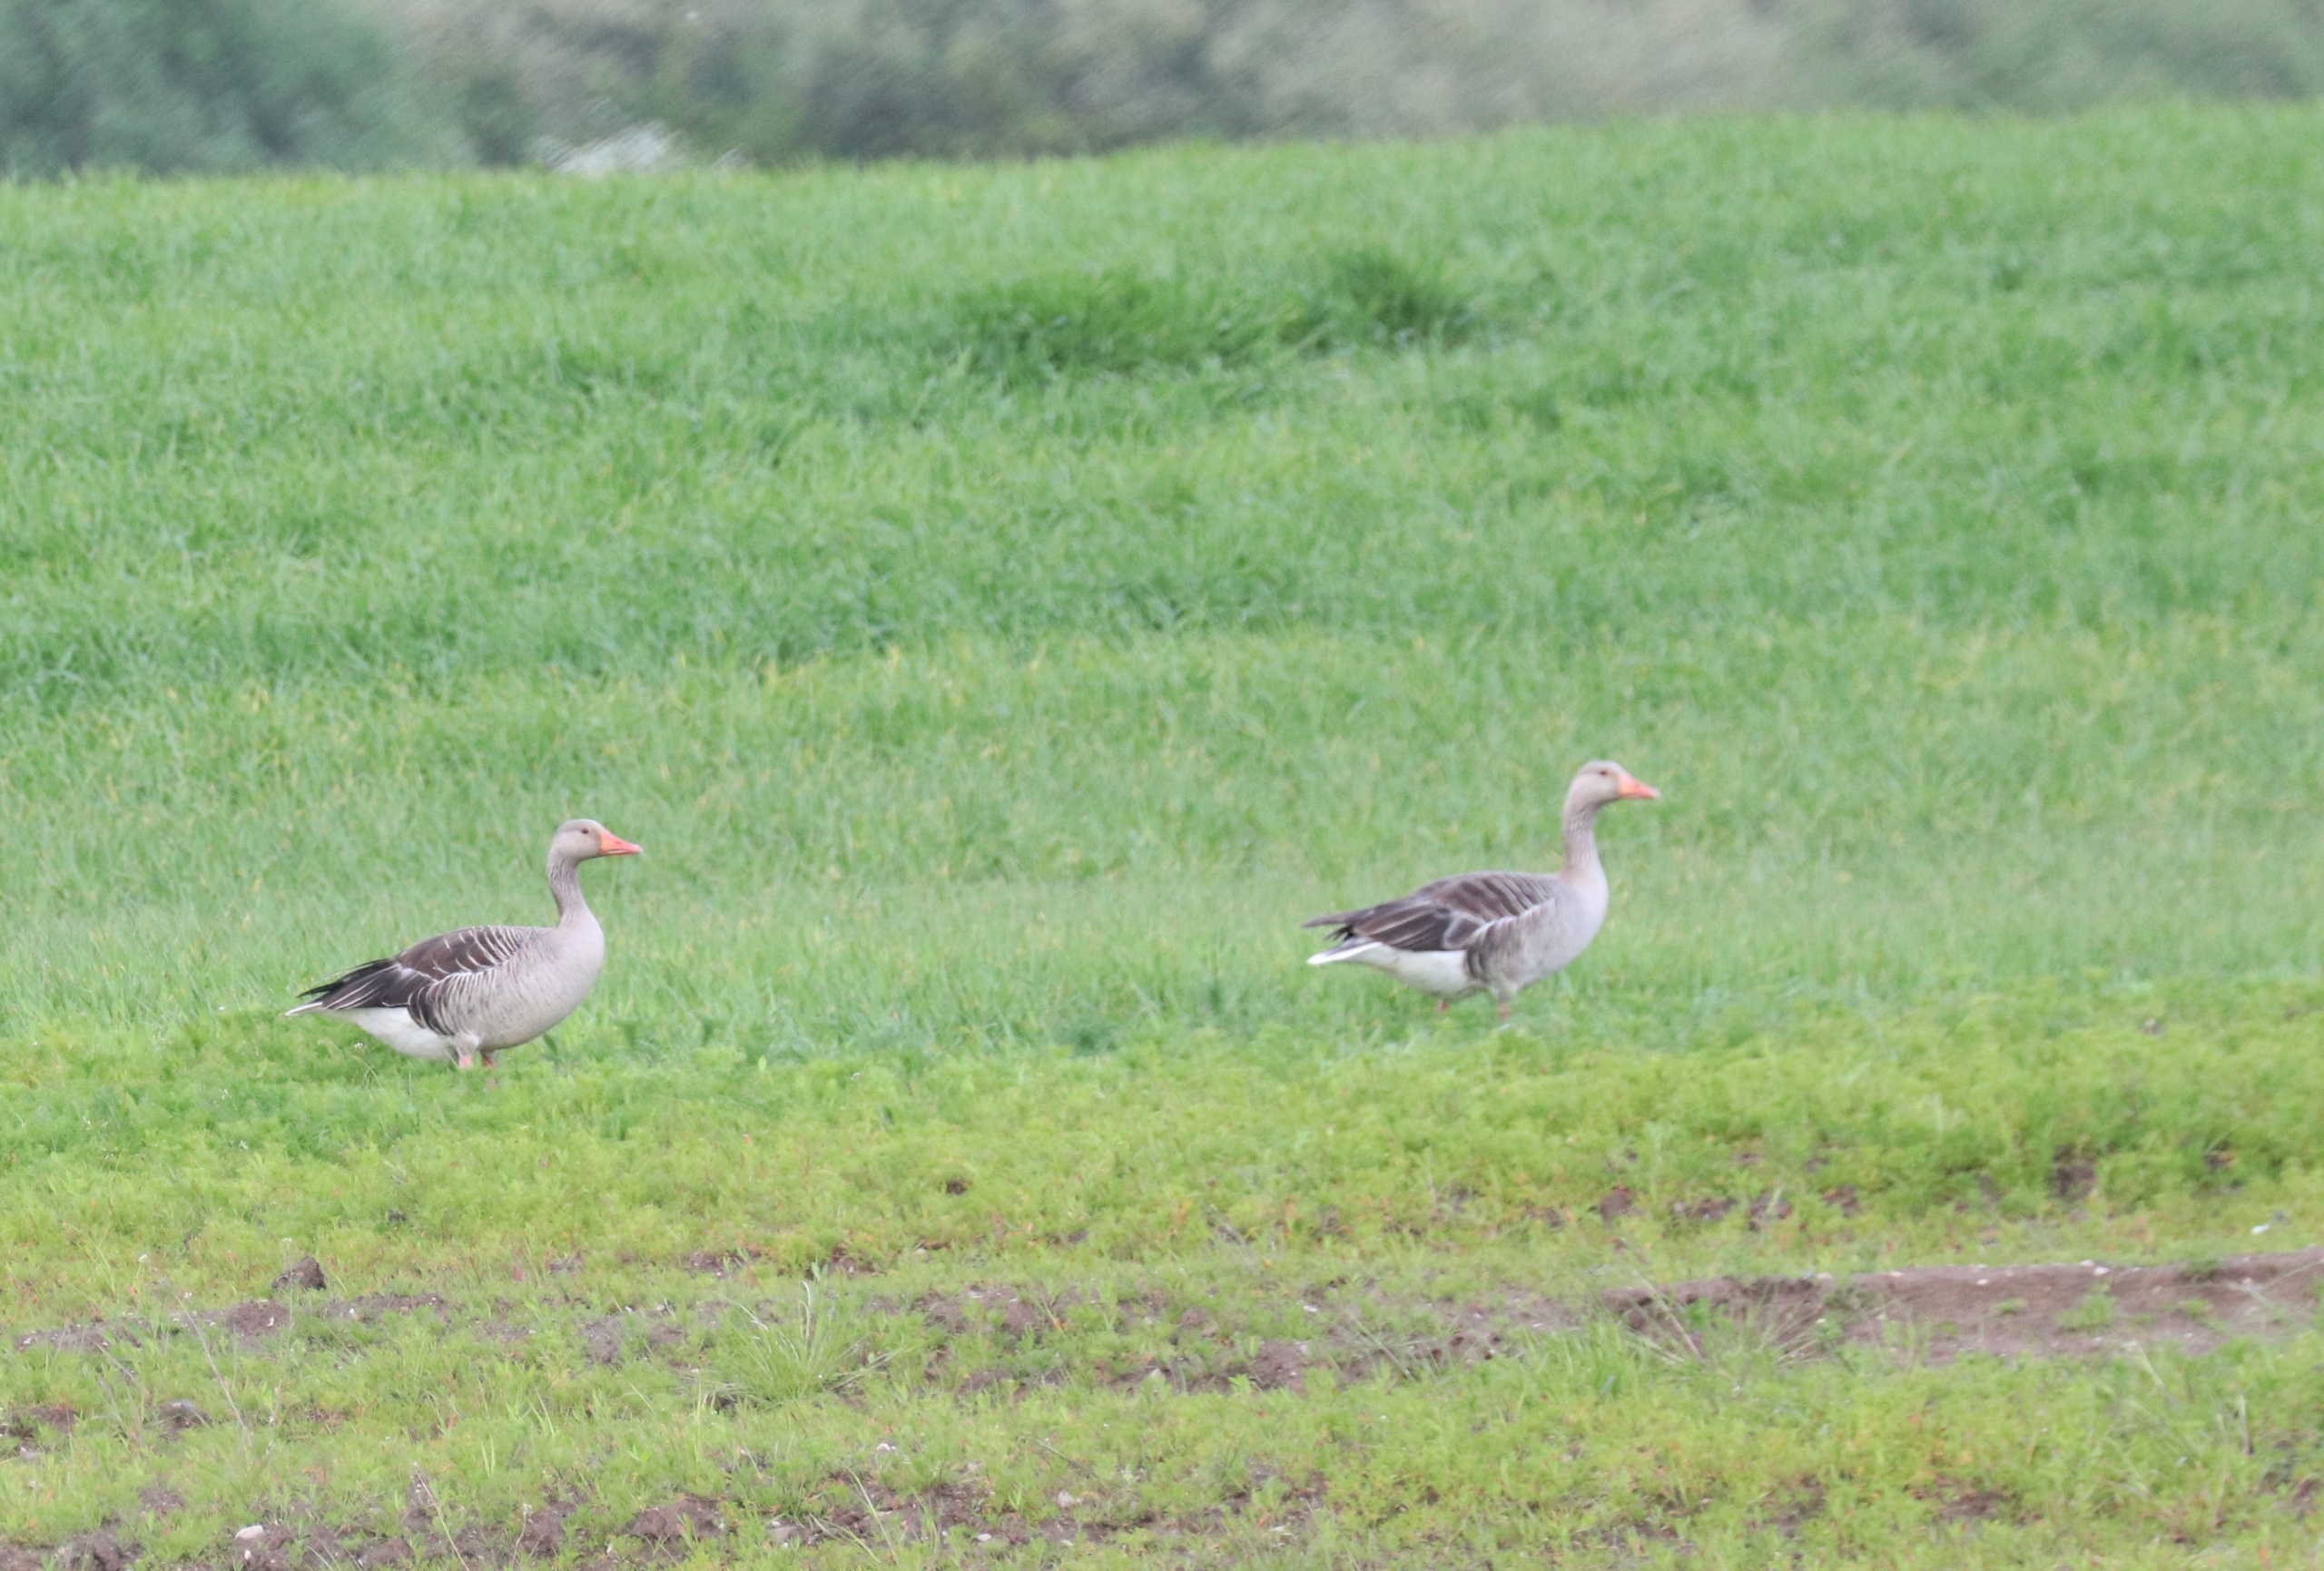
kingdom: Animalia
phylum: Chordata
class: Aves
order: Anseriformes
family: Anatidae
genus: Anser
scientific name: Anser anser
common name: Grågås
